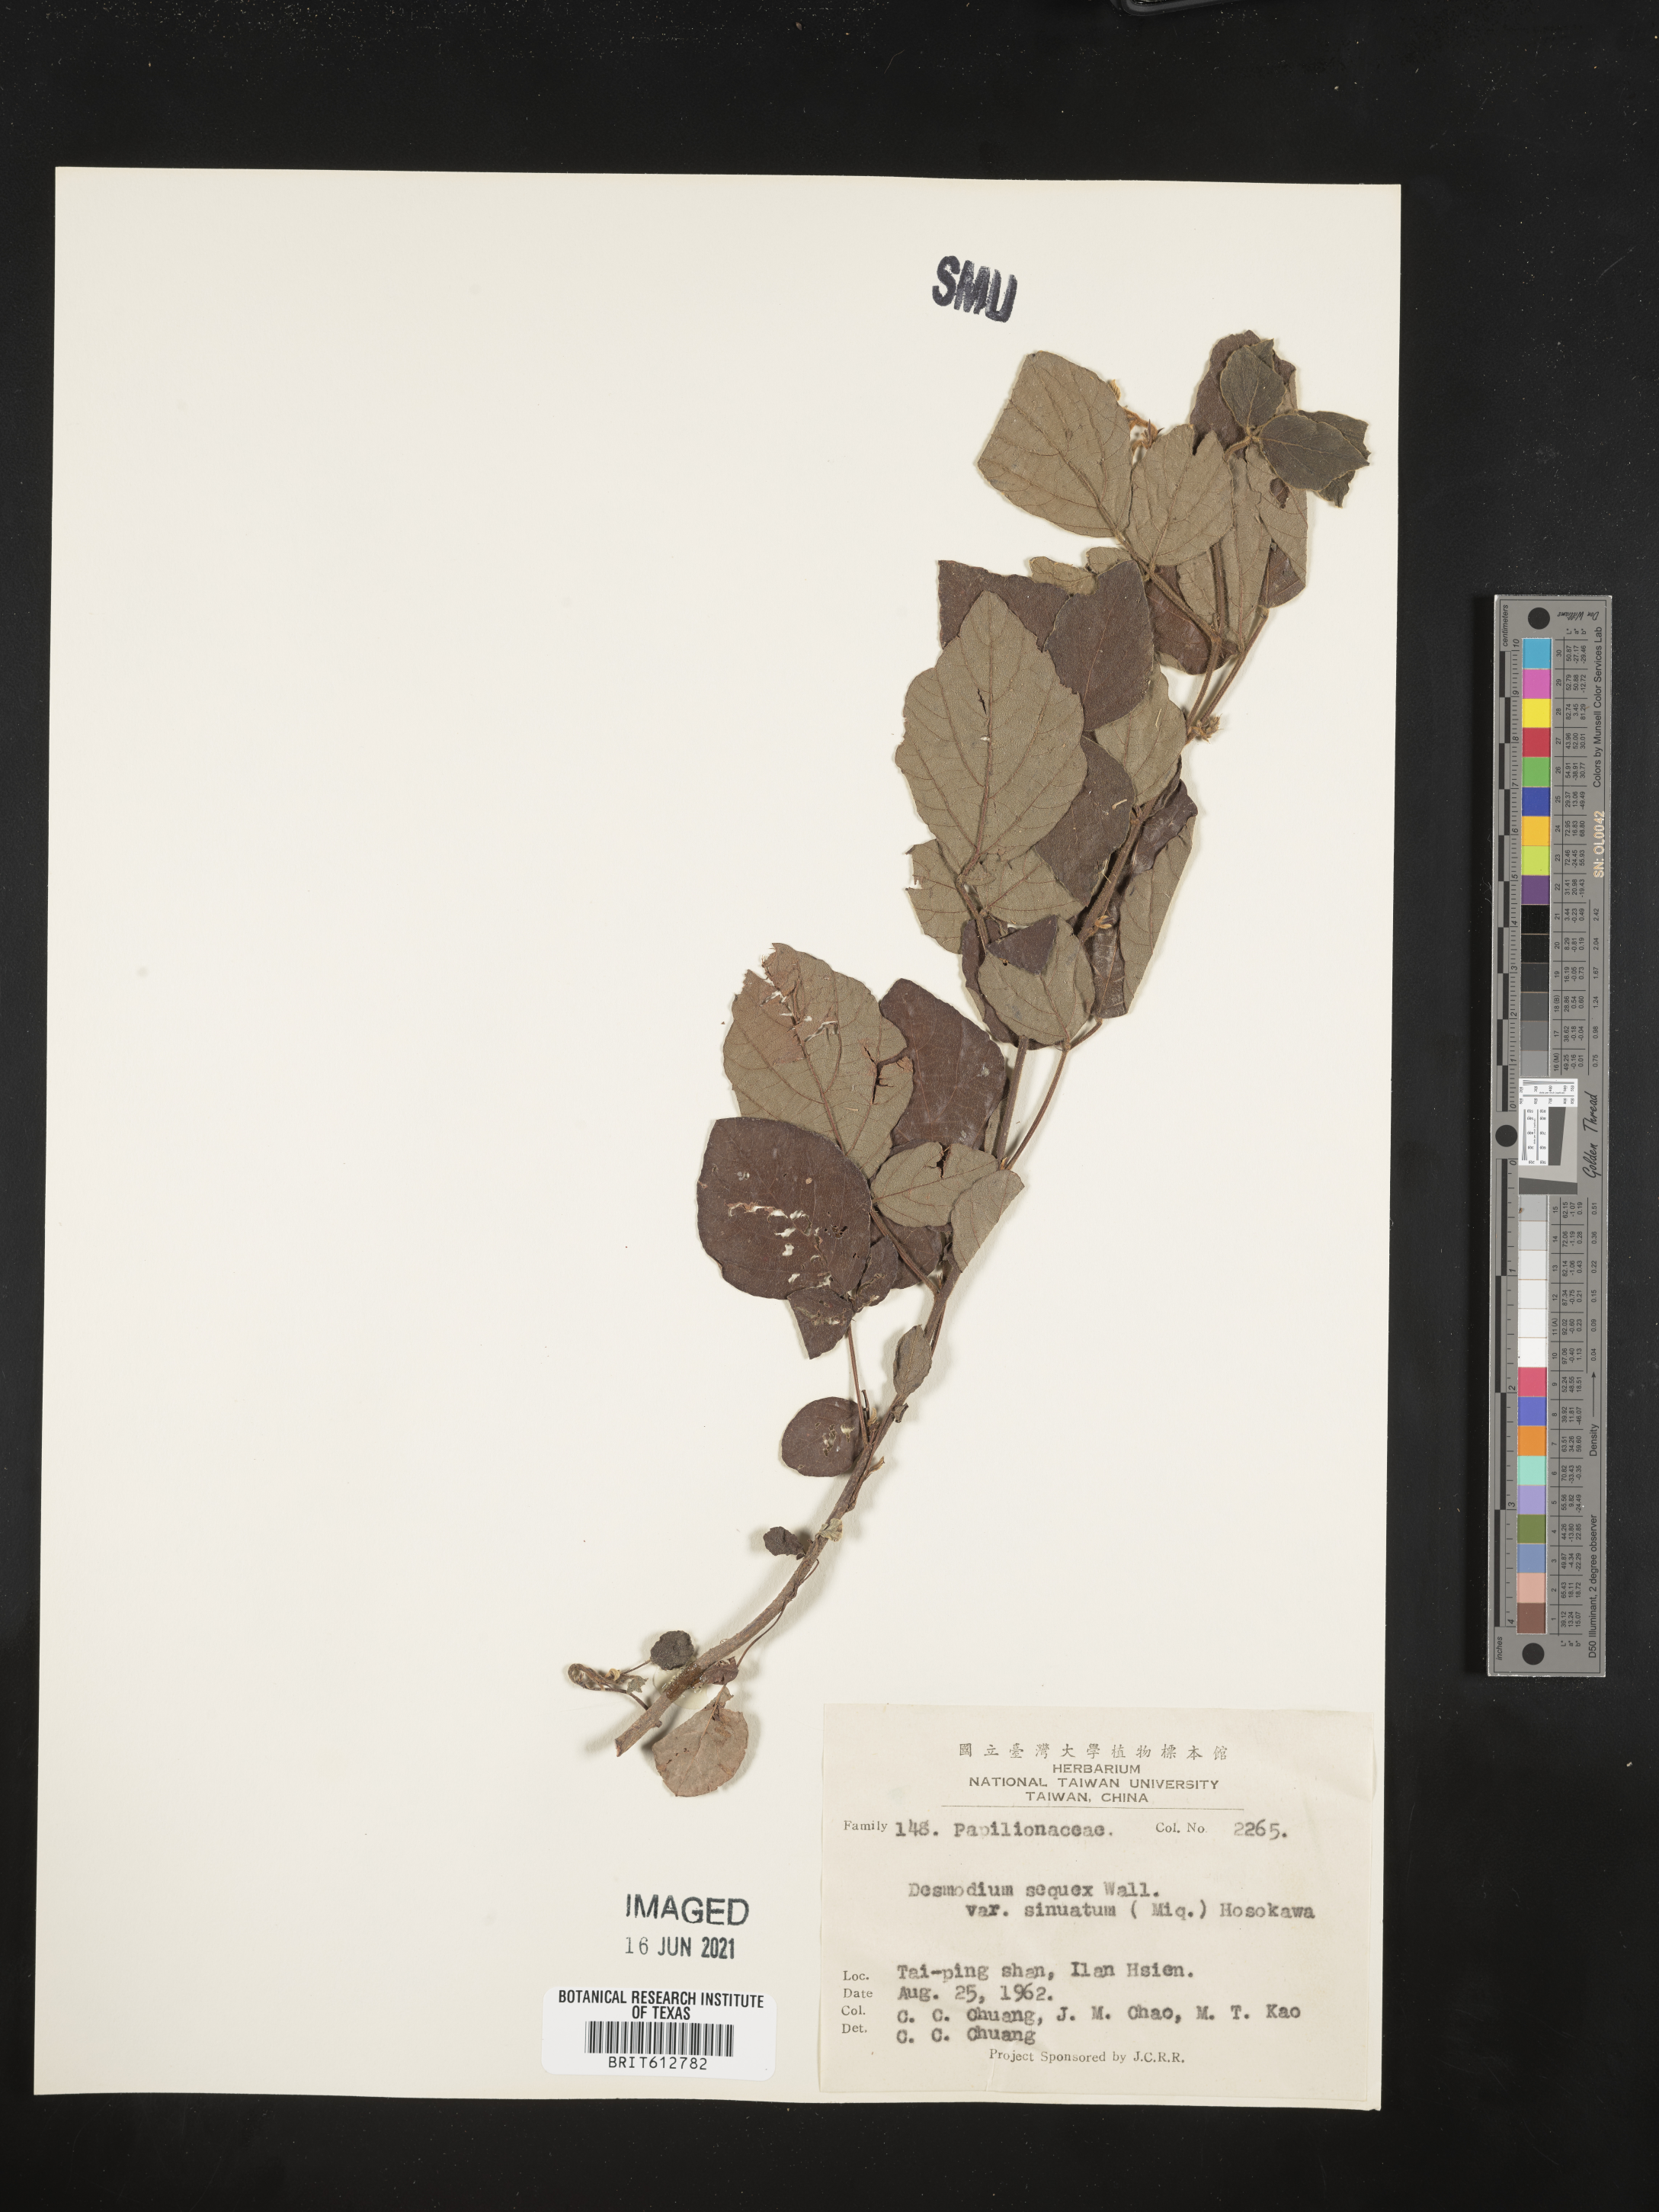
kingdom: Plantae
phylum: Tracheophyta
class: Magnoliopsida
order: Fabales
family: Fabaceae
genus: Puhuaea
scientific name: Puhuaea sequax
